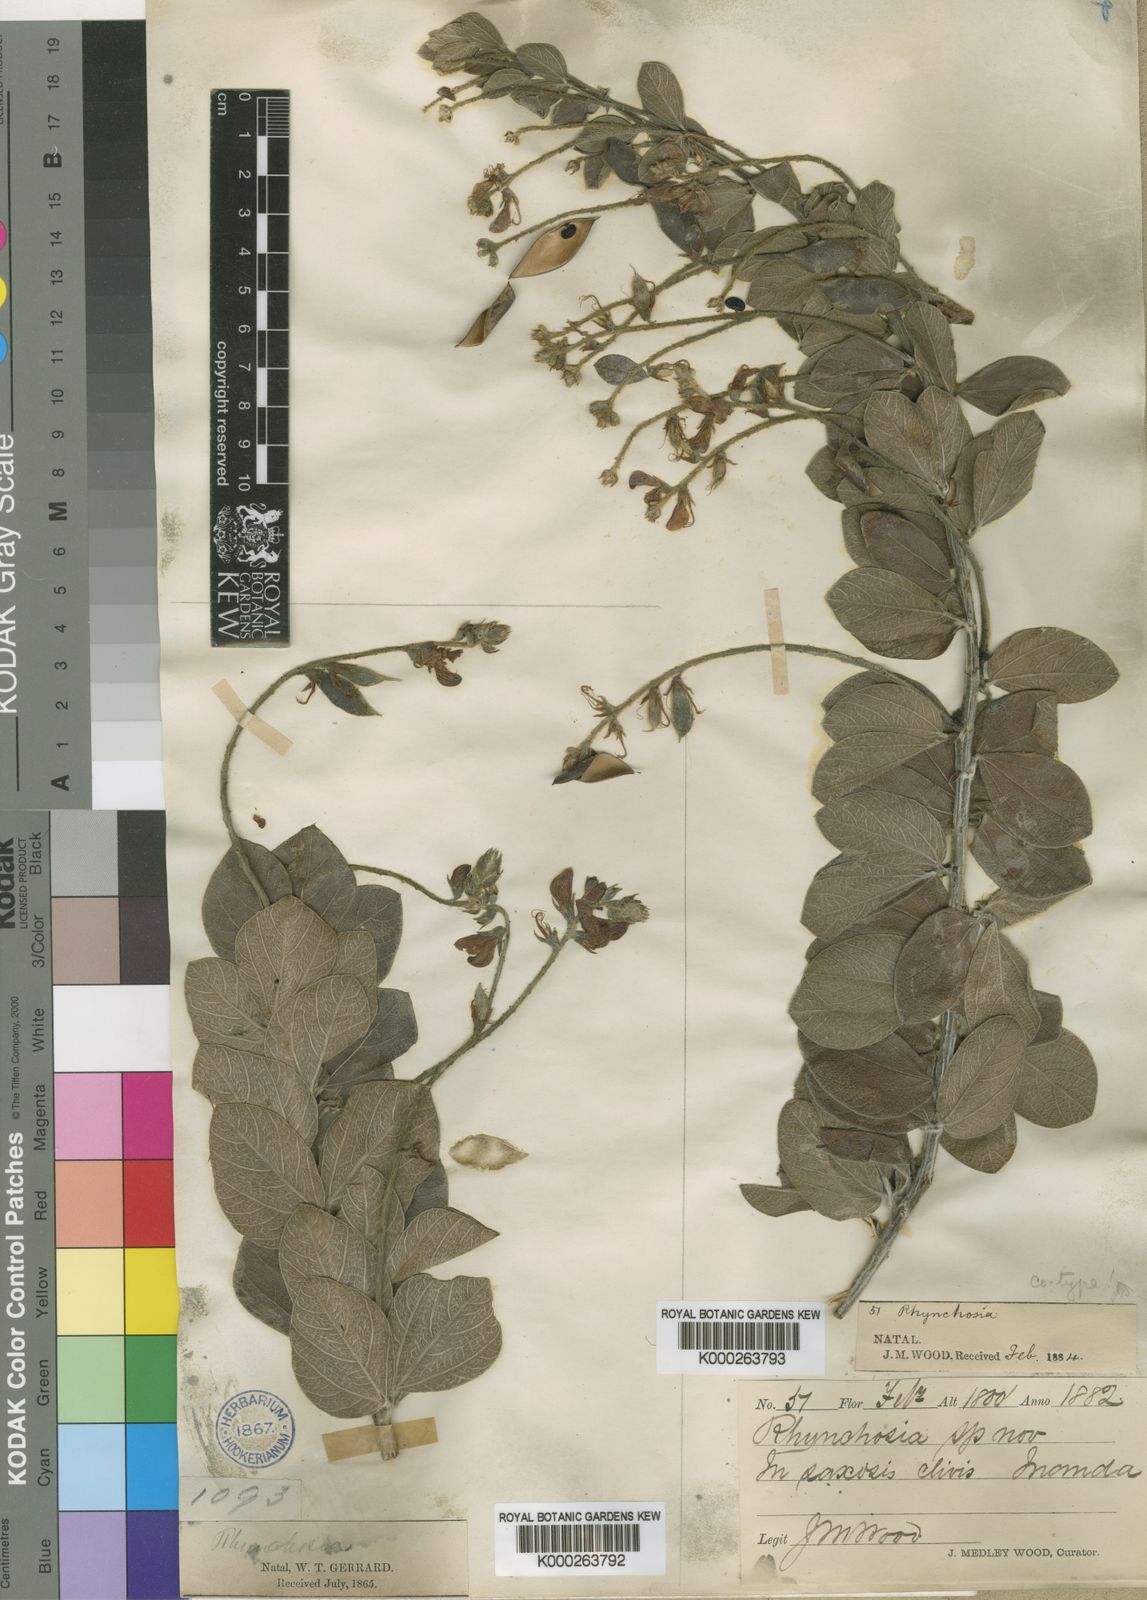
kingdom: Plantae
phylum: Tracheophyta
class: Magnoliopsida
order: Fabales
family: Fabaceae
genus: Rhynchosia
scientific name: Rhynchosia woodii
